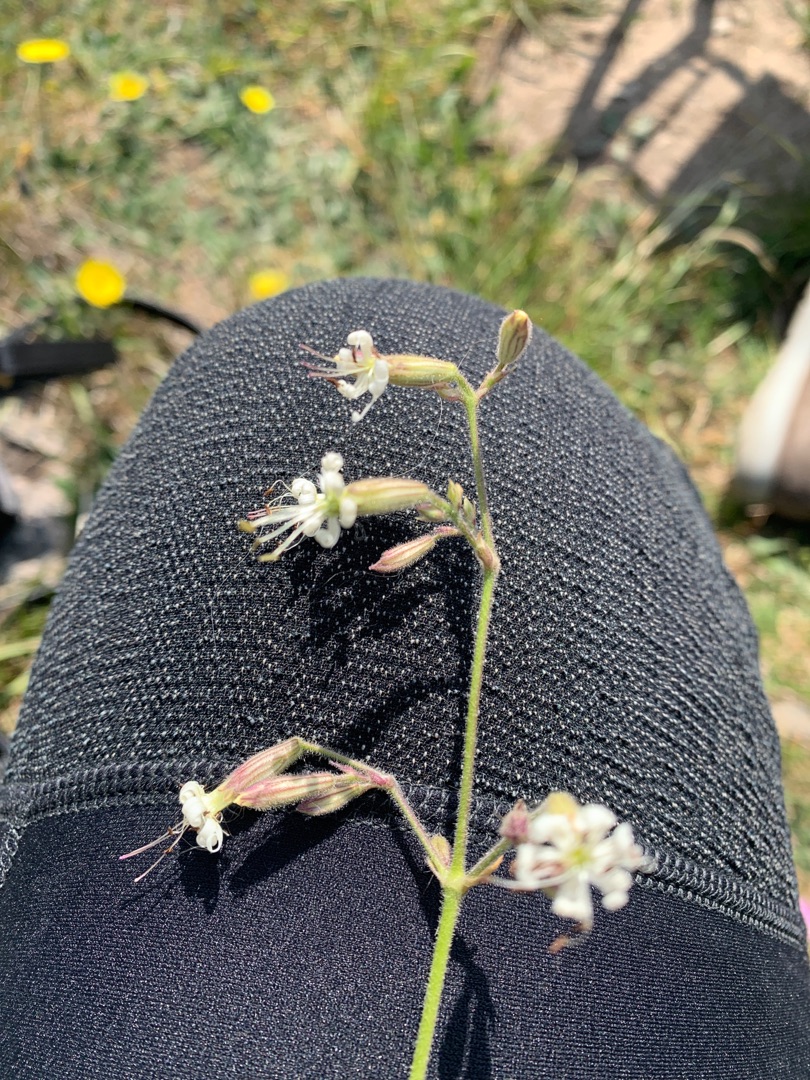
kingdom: Plantae
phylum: Tracheophyta
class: Magnoliopsida
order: Caryophyllales
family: Caryophyllaceae
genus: Silene
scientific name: Silene nutans
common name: Nikkende limurt
